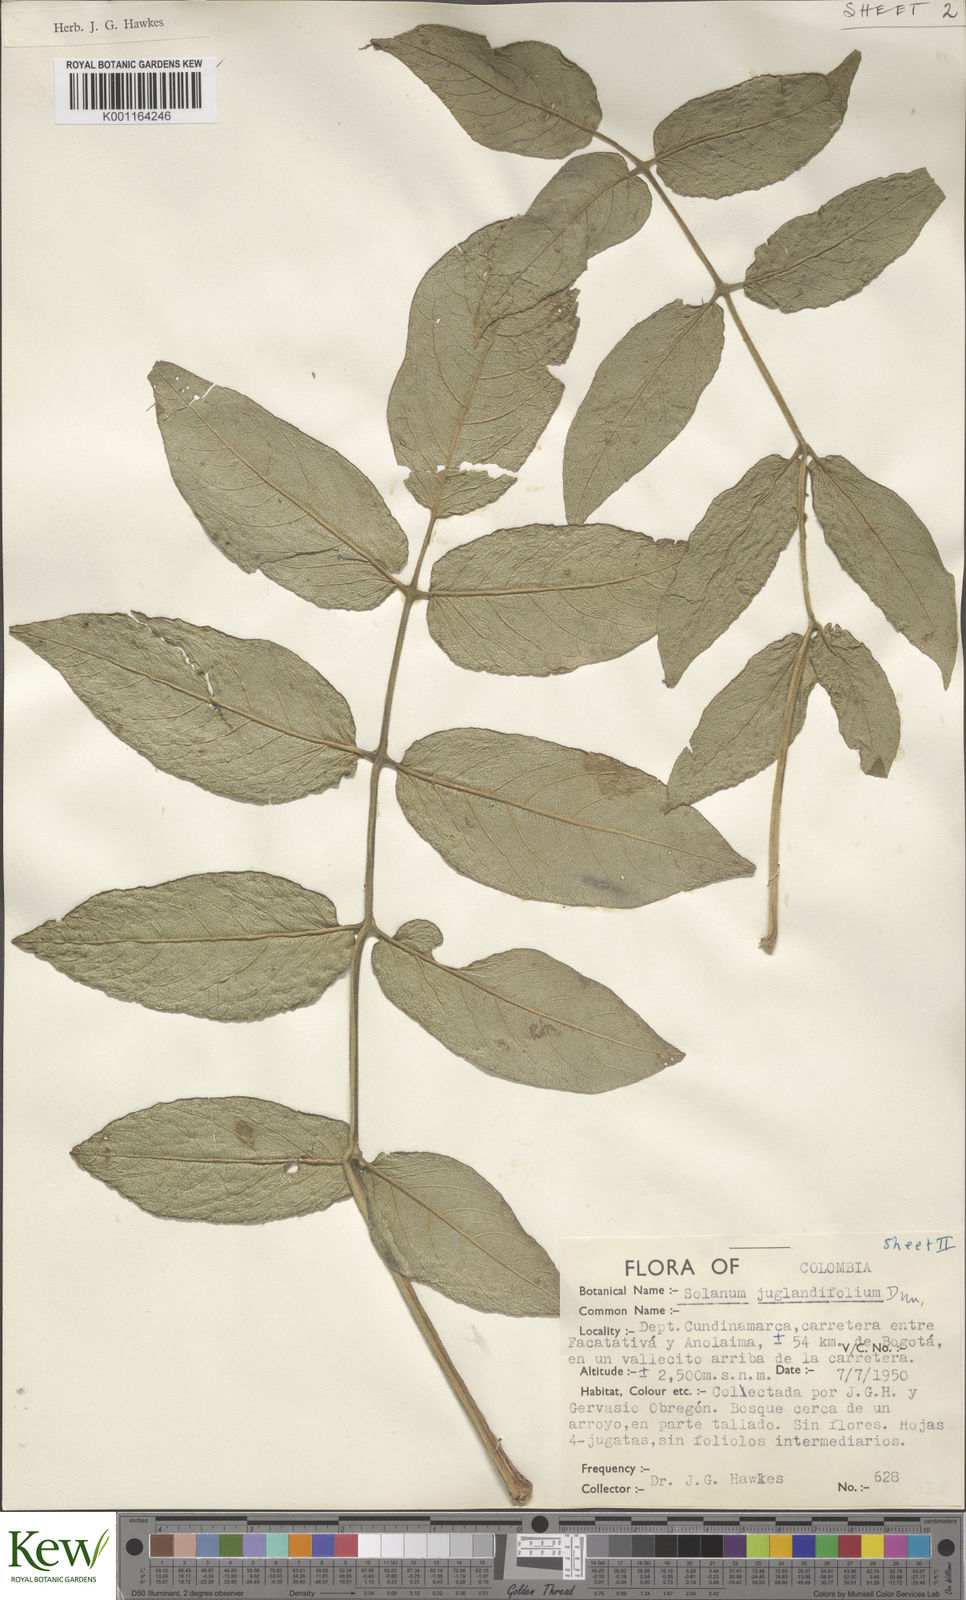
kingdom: Plantae
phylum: Tracheophyta
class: Magnoliopsida
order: Solanales
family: Solanaceae
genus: Solanum
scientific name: Solanum juglandifolium
